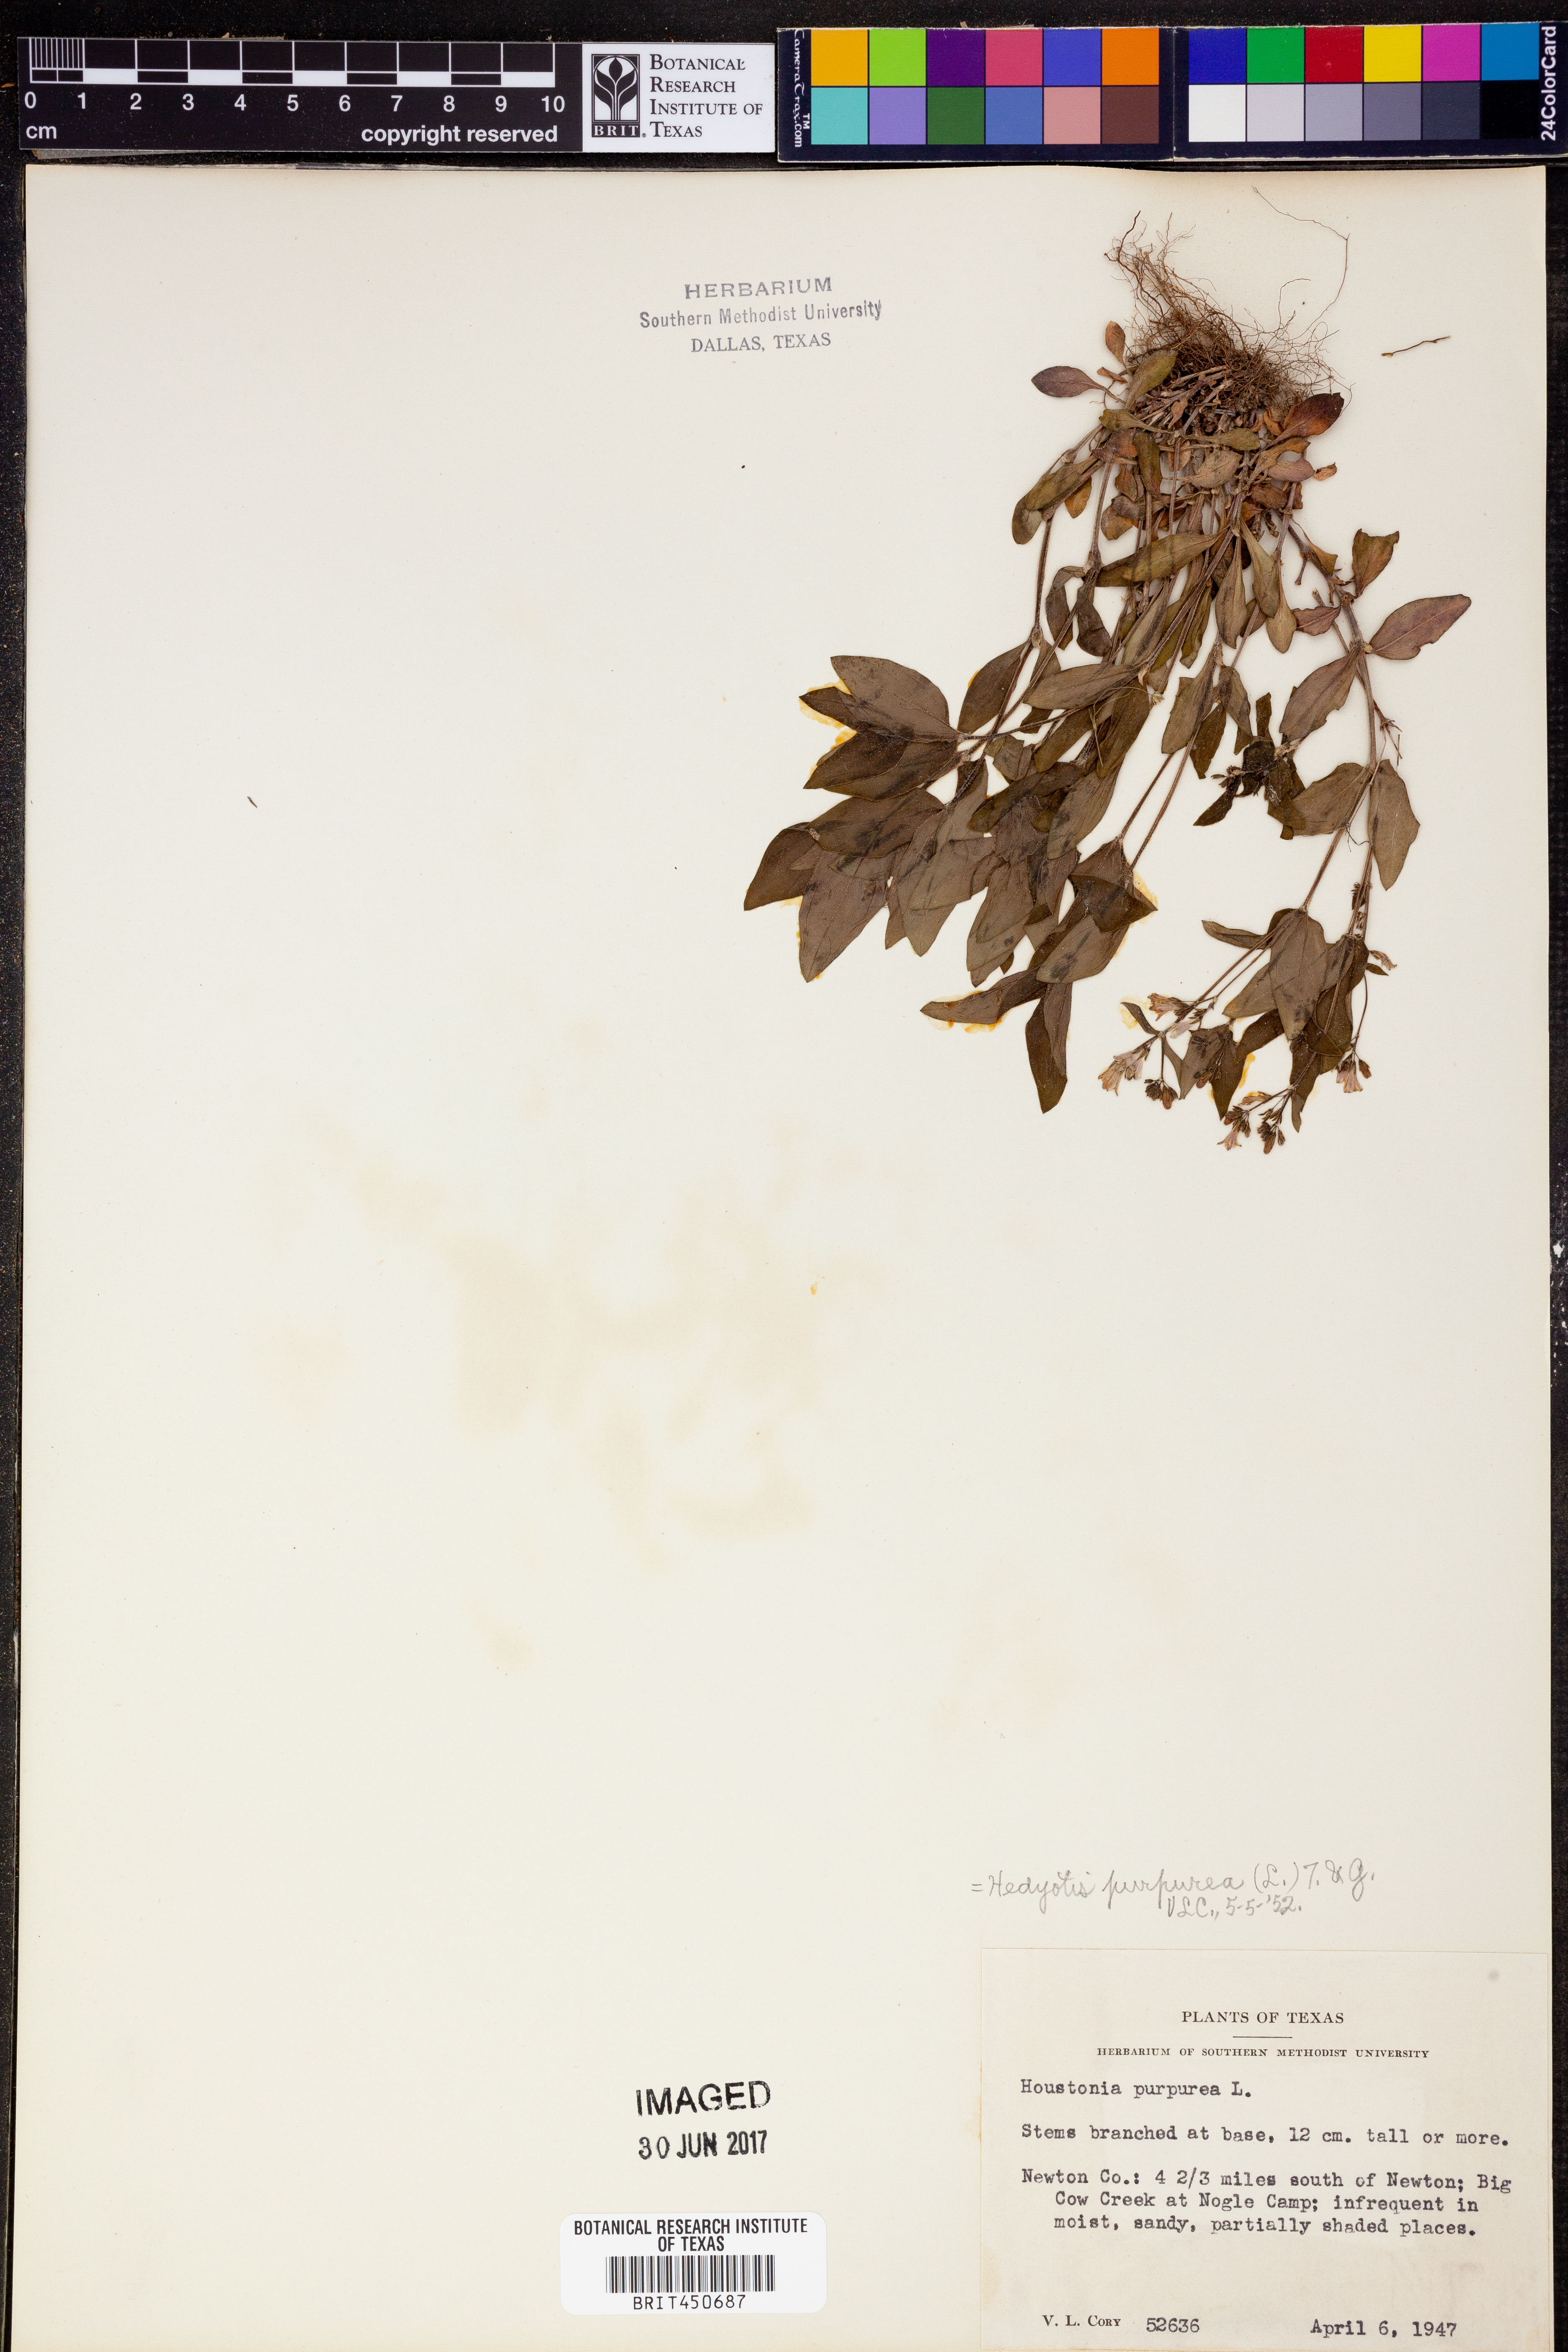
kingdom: Plantae
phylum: Tracheophyta
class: Magnoliopsida
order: Gentianales
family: Rubiaceae
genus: Houstonia
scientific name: Houstonia purpurea
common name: Summer bluet
